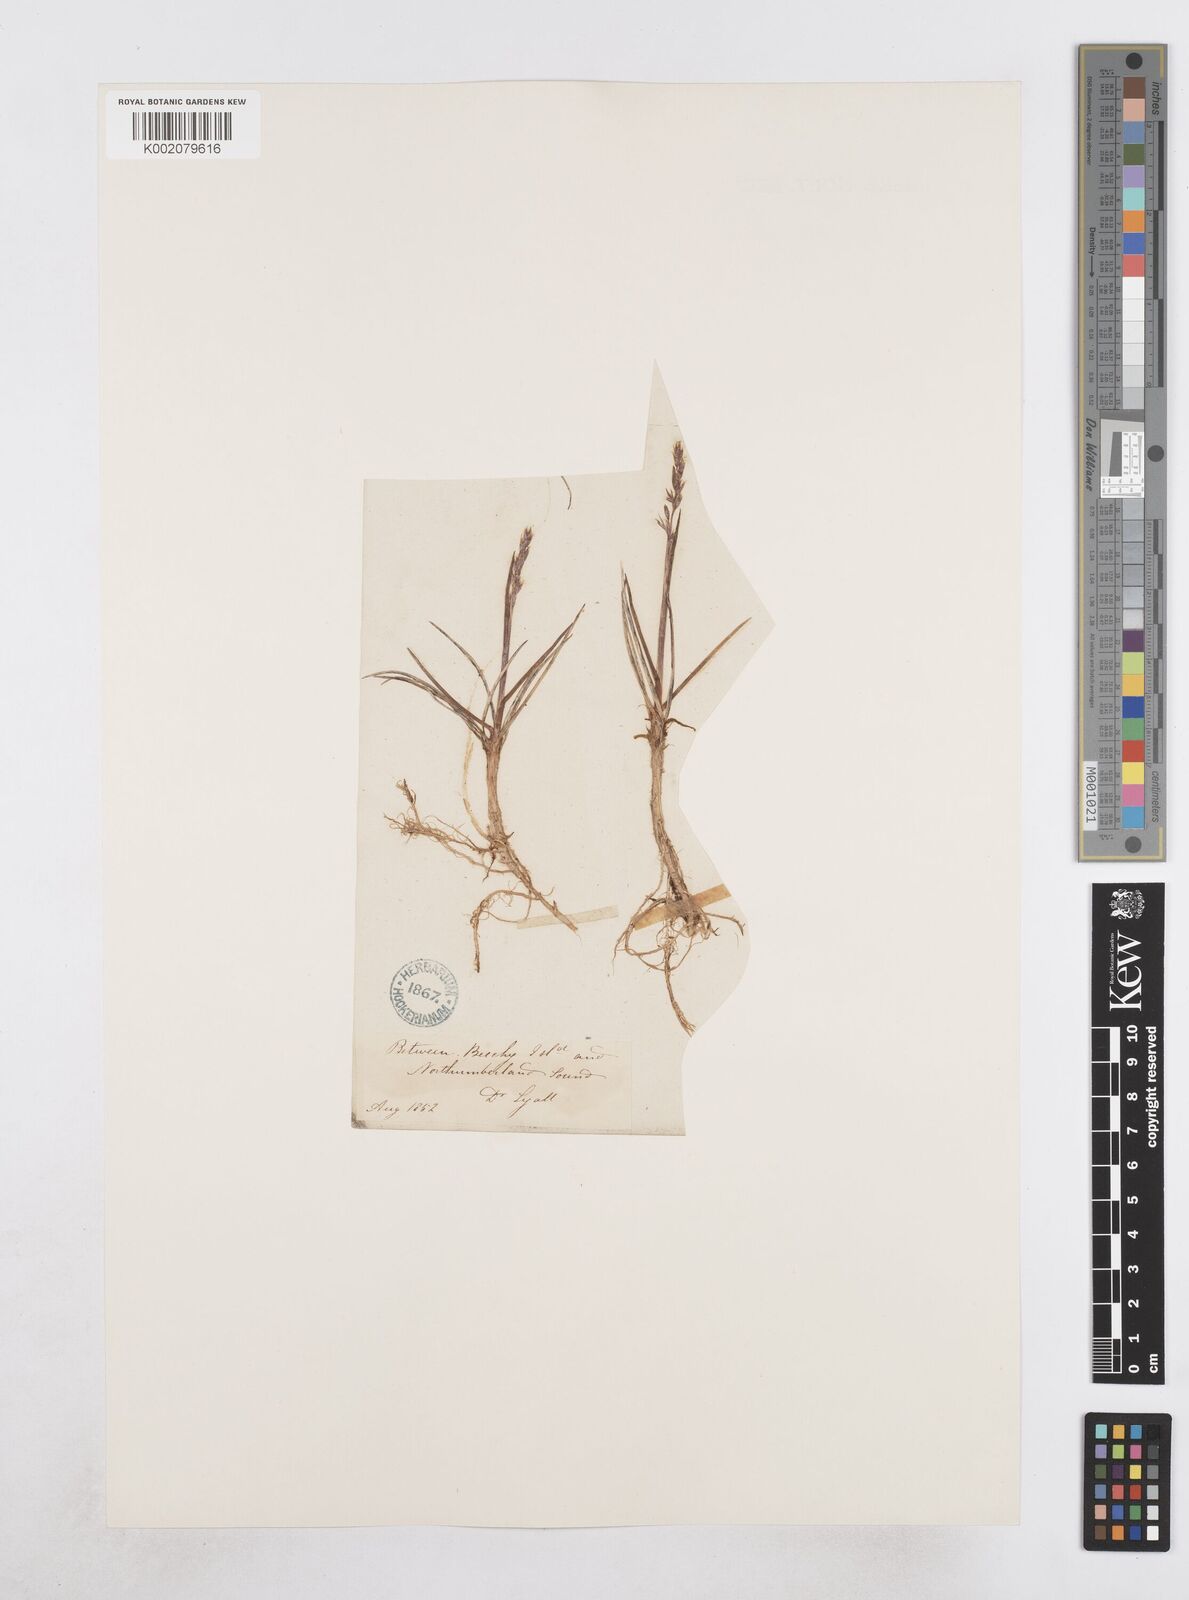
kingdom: Plantae
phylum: Tracheophyta
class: Liliopsida
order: Poales
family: Poaceae
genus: Dupontia
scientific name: Dupontia fisheri
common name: Tundra grass
